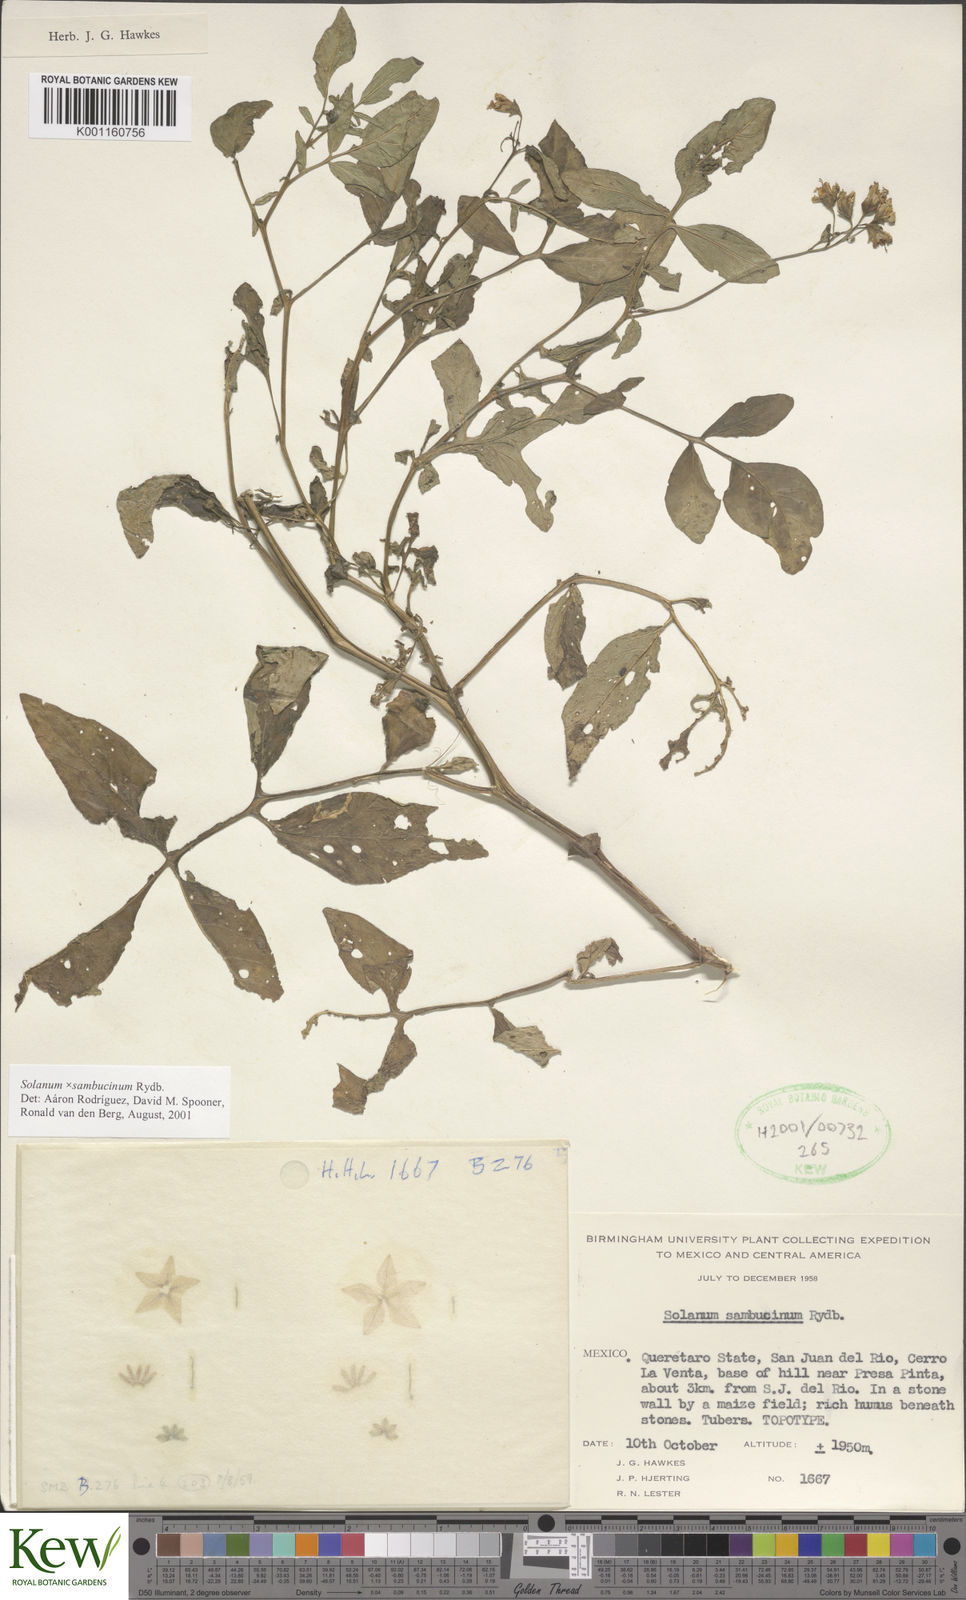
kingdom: Plantae
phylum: Tracheophyta
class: Magnoliopsida
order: Solanales
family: Solanaceae
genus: Solanum
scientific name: Solanum sambucinum
